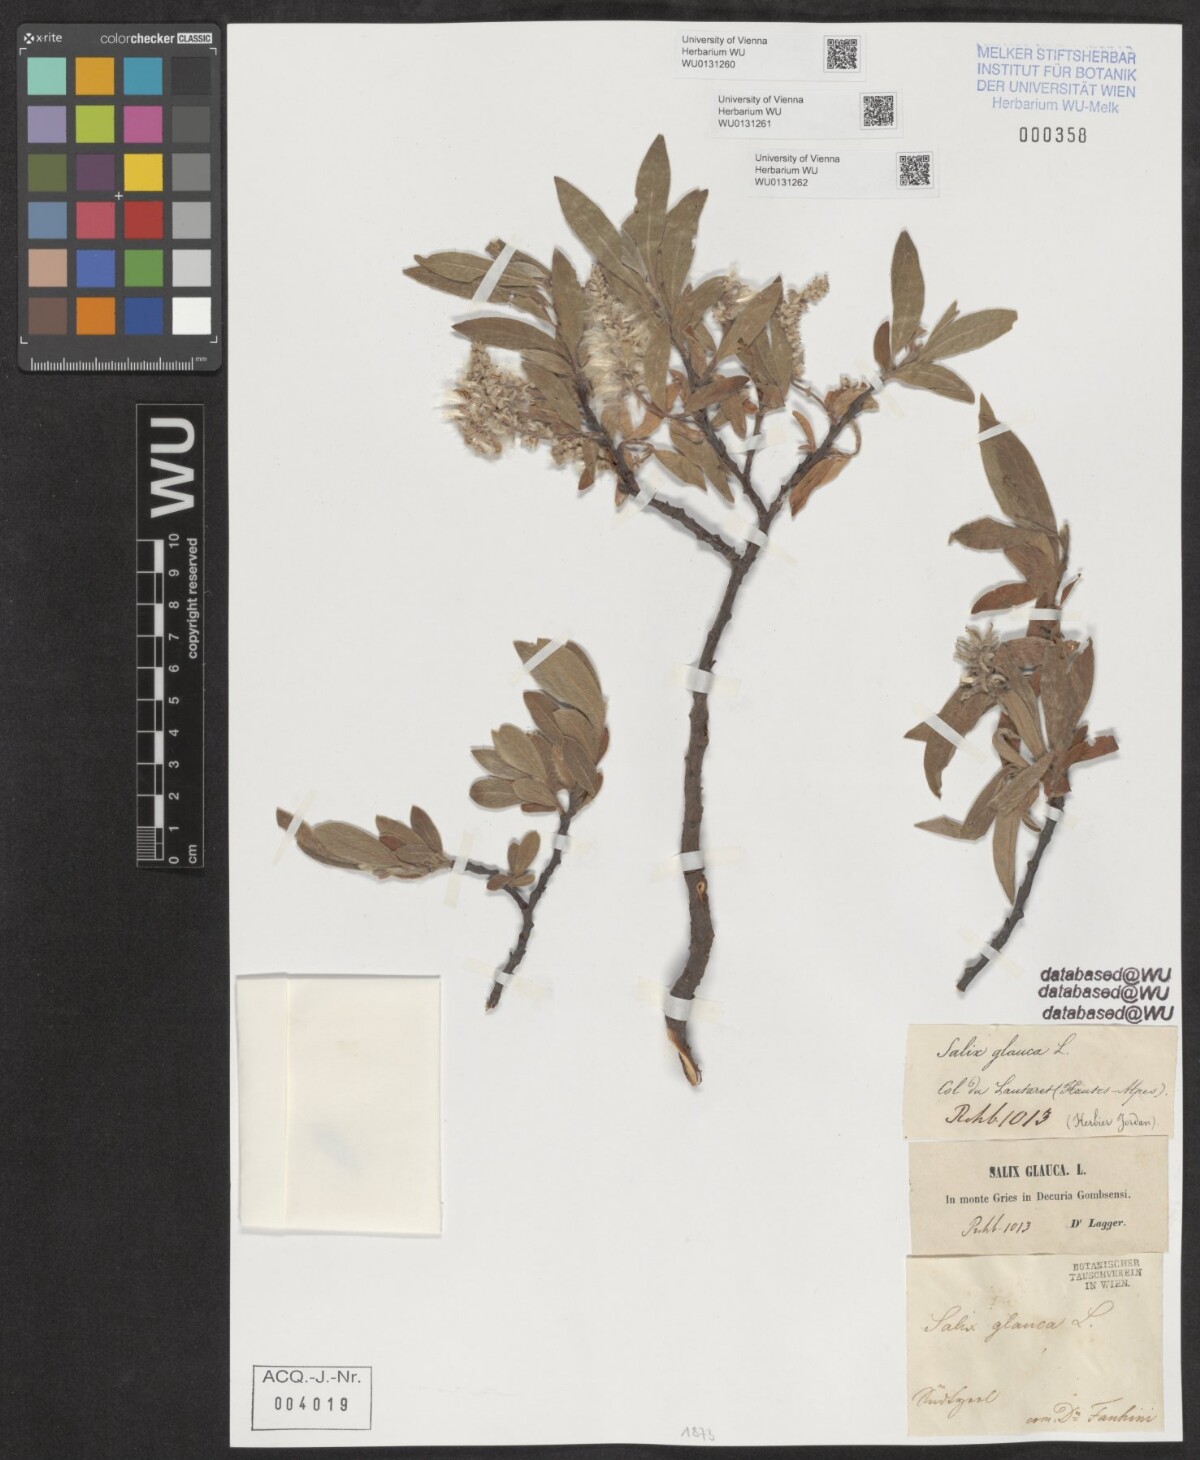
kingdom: Plantae
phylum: Tracheophyta
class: Magnoliopsida
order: Malpighiales
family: Salicaceae
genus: Salix
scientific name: Salix glauca
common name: Glaucous willow
